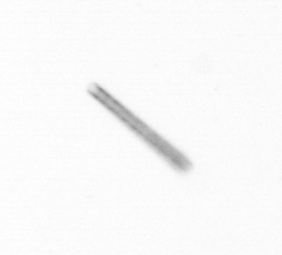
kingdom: Chromista
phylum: Ochrophyta
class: Bacillariophyceae
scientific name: Bacillariophyceae
